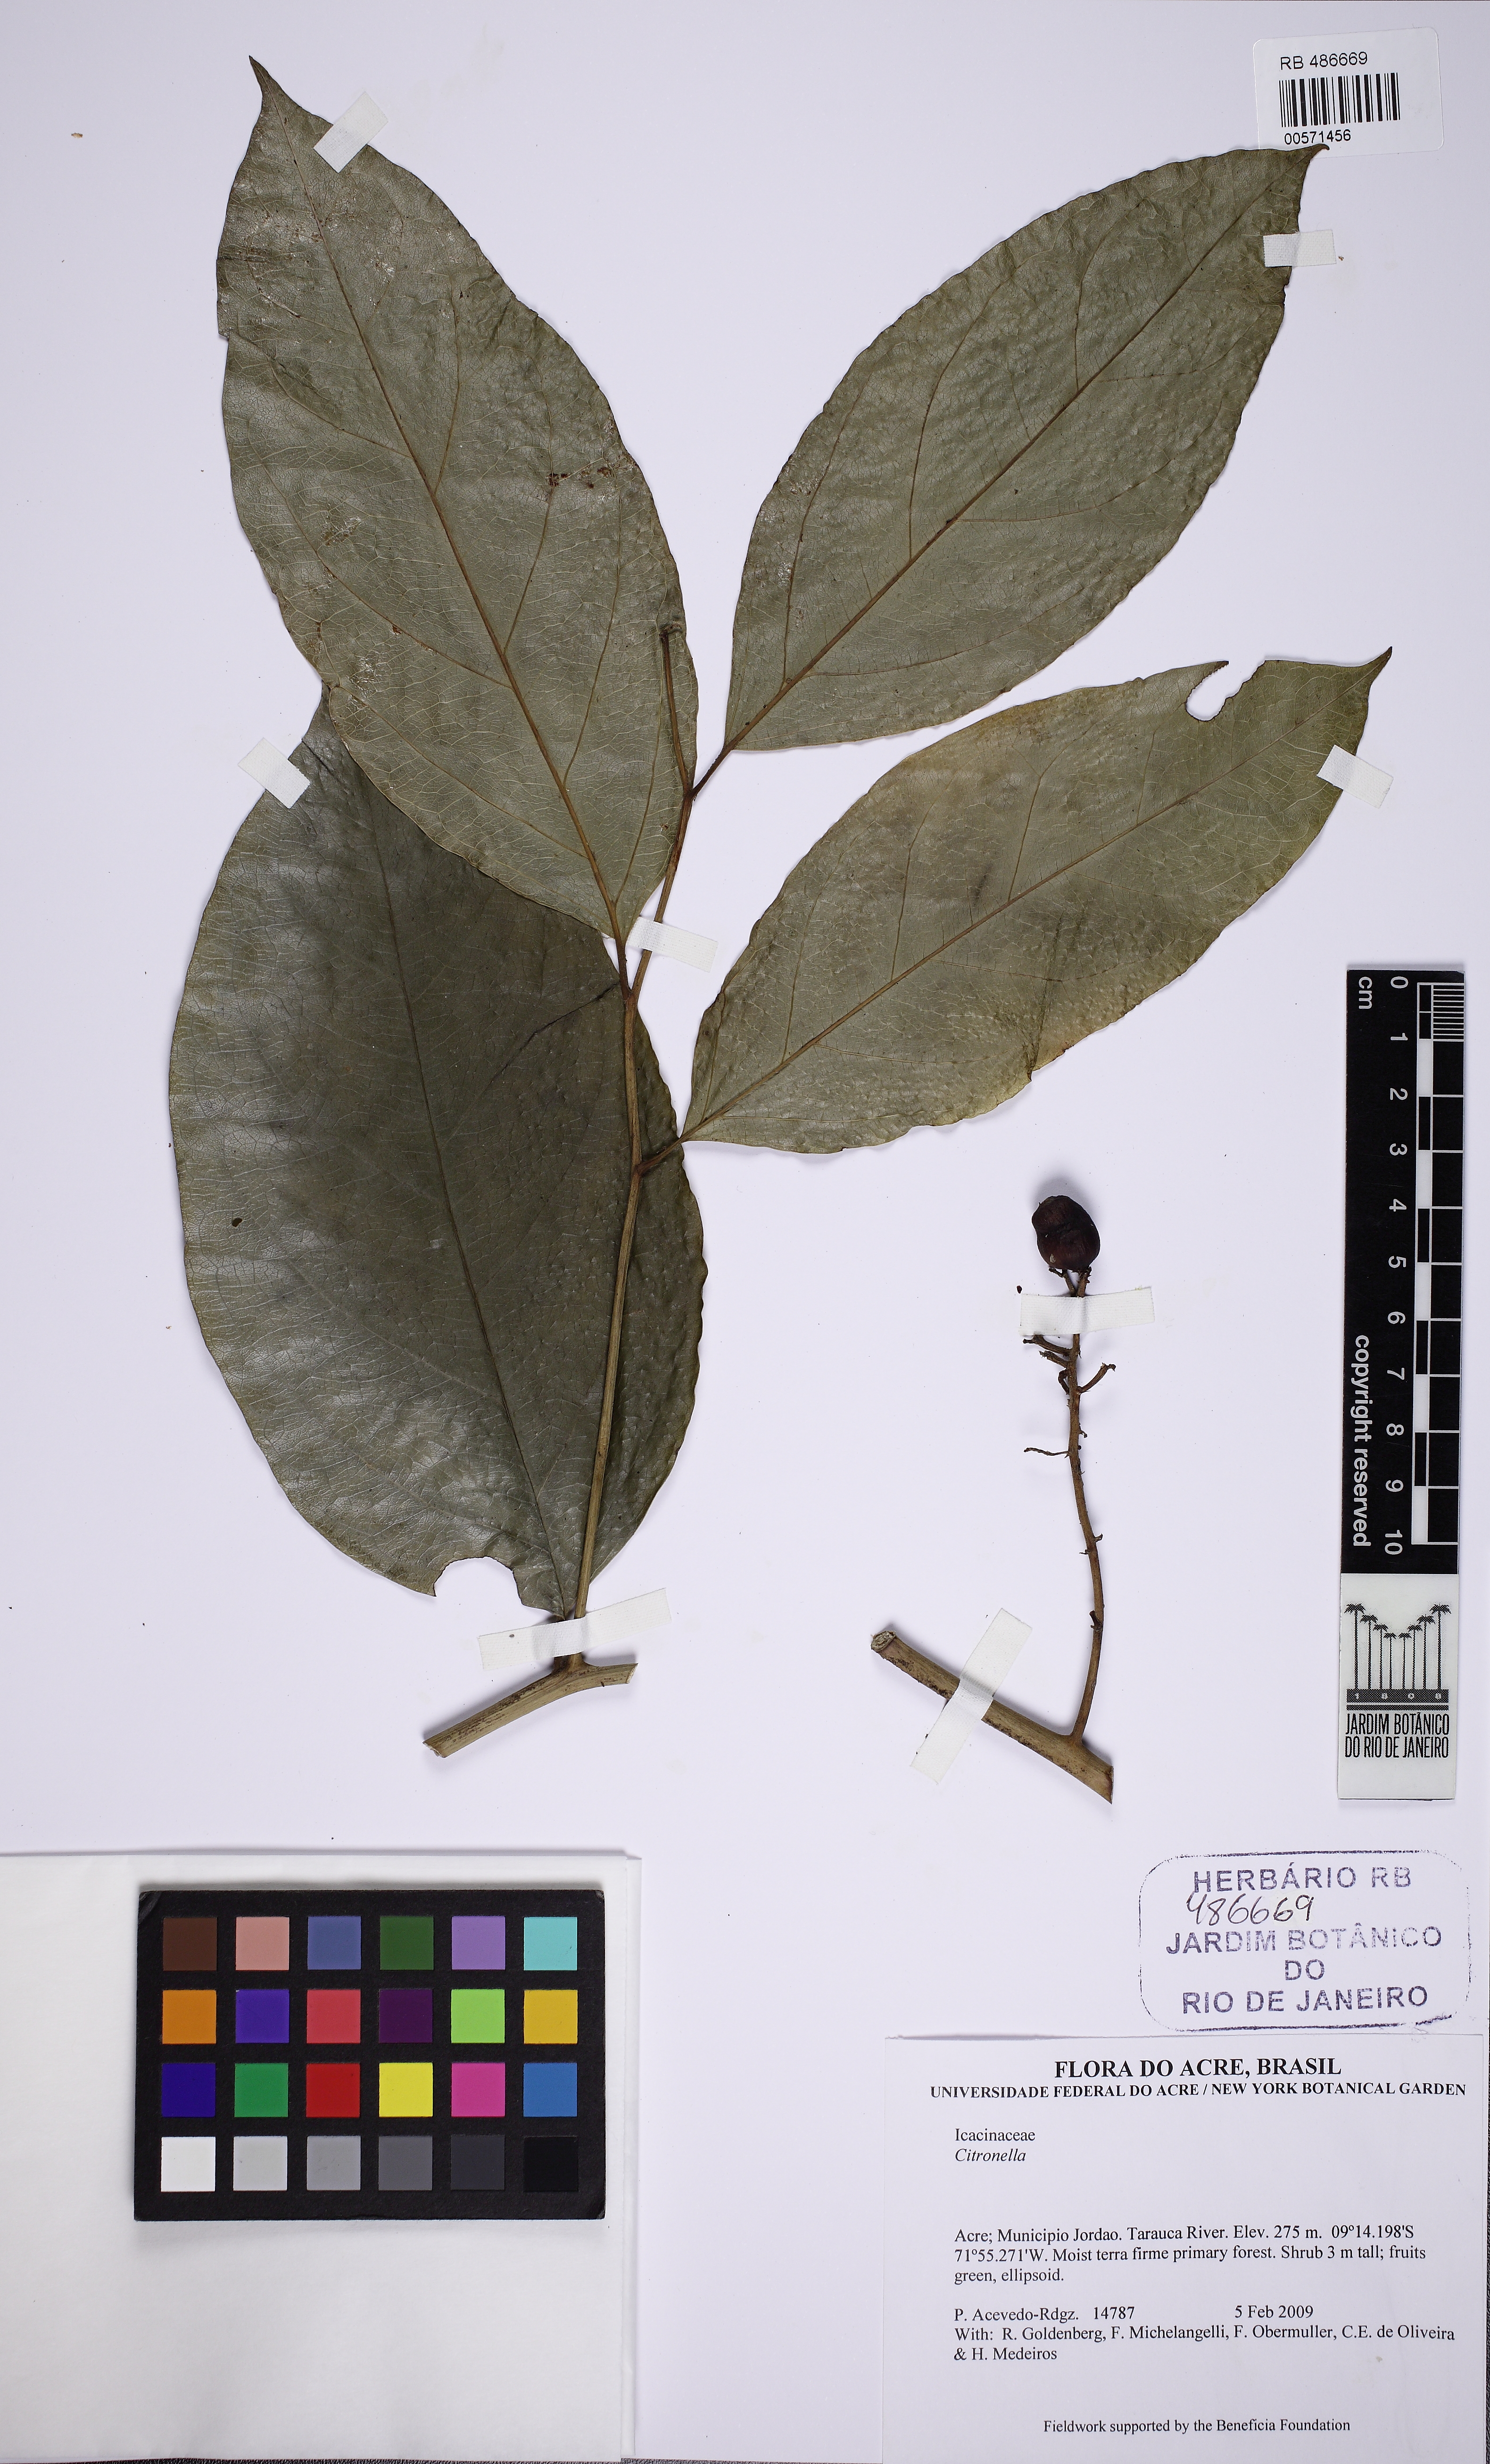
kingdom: Plantae
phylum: Tracheophyta
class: Magnoliopsida
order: Cardiopteridales
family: Cardiopteridaceae
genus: Citronella
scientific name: Citronella
